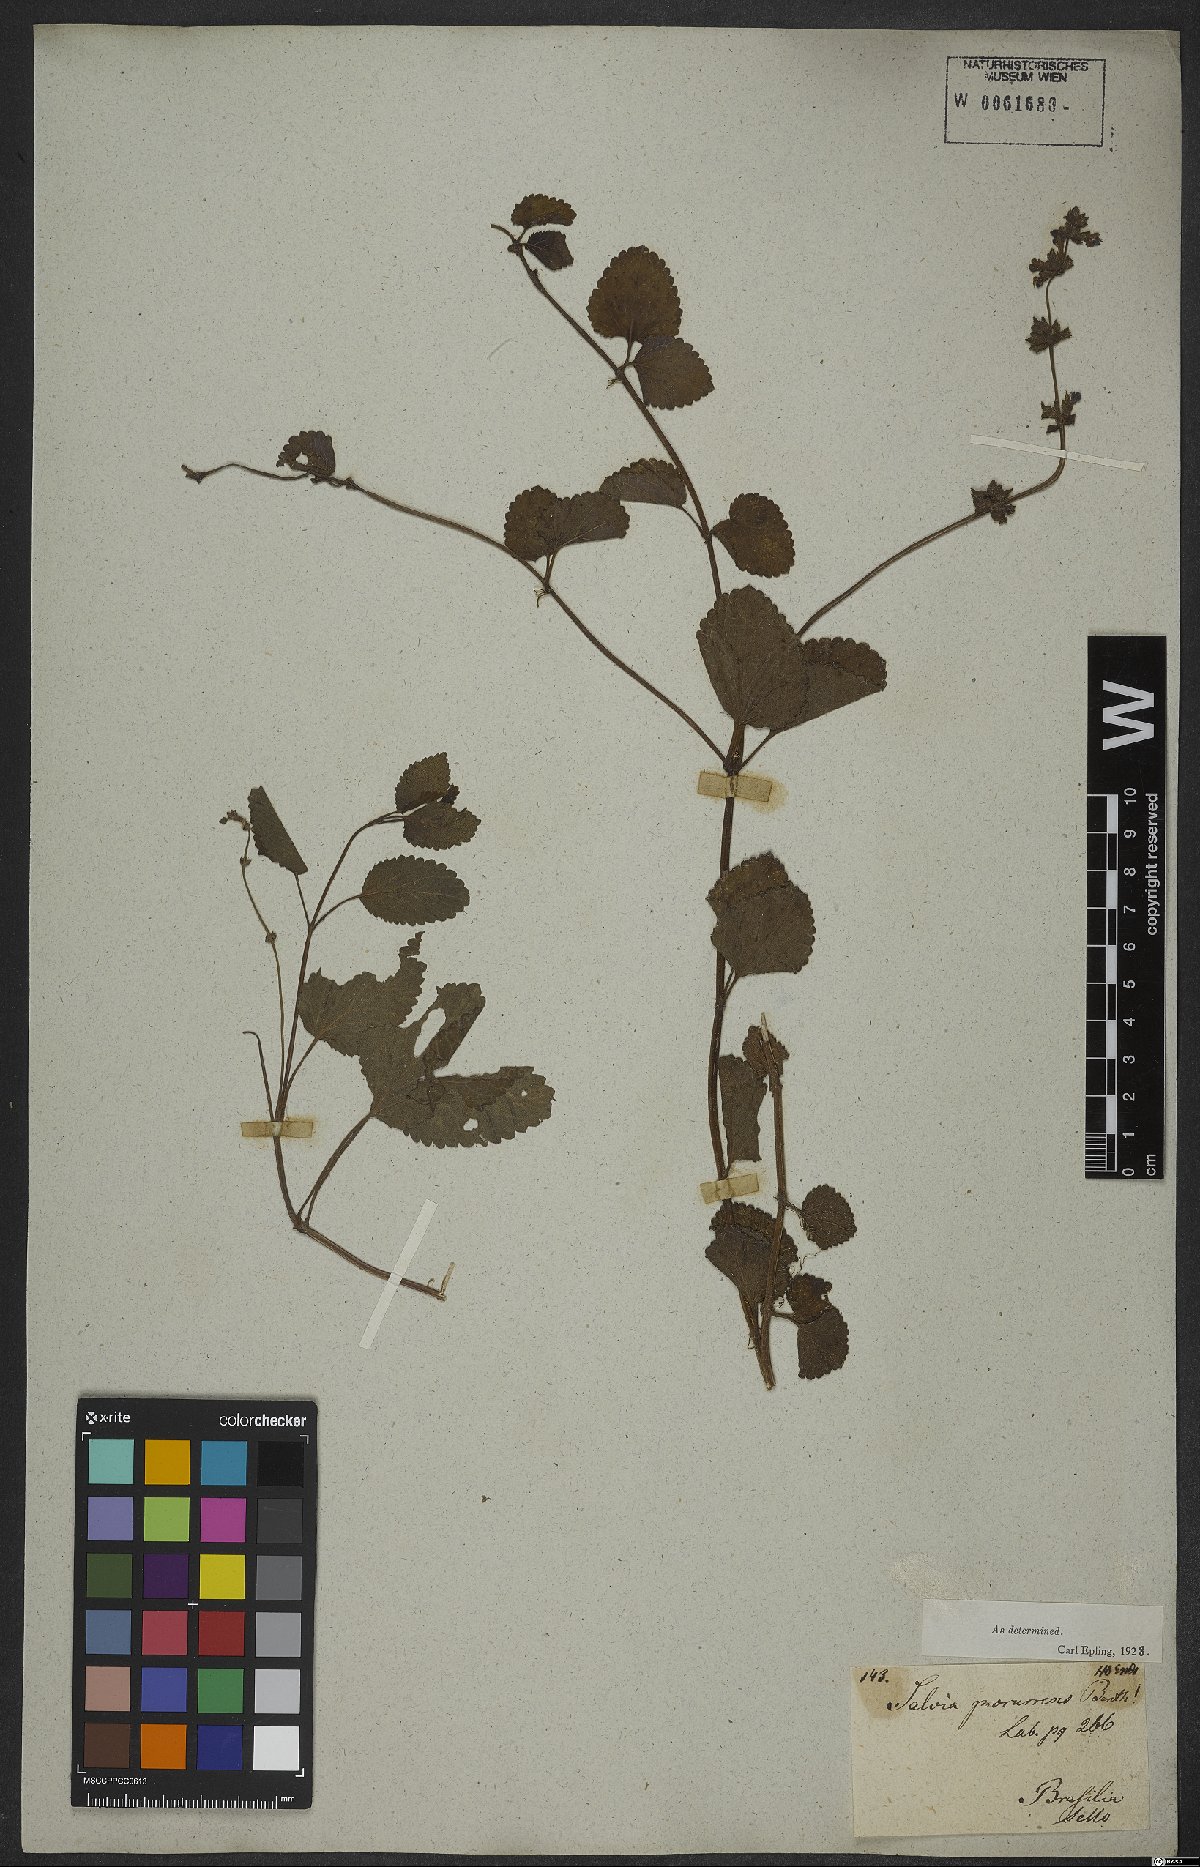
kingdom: Plantae
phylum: Tracheophyta
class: Magnoliopsida
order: Lamiales
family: Lamiaceae
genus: Salvia
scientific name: Salvia procurrens
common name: Blue creeper
